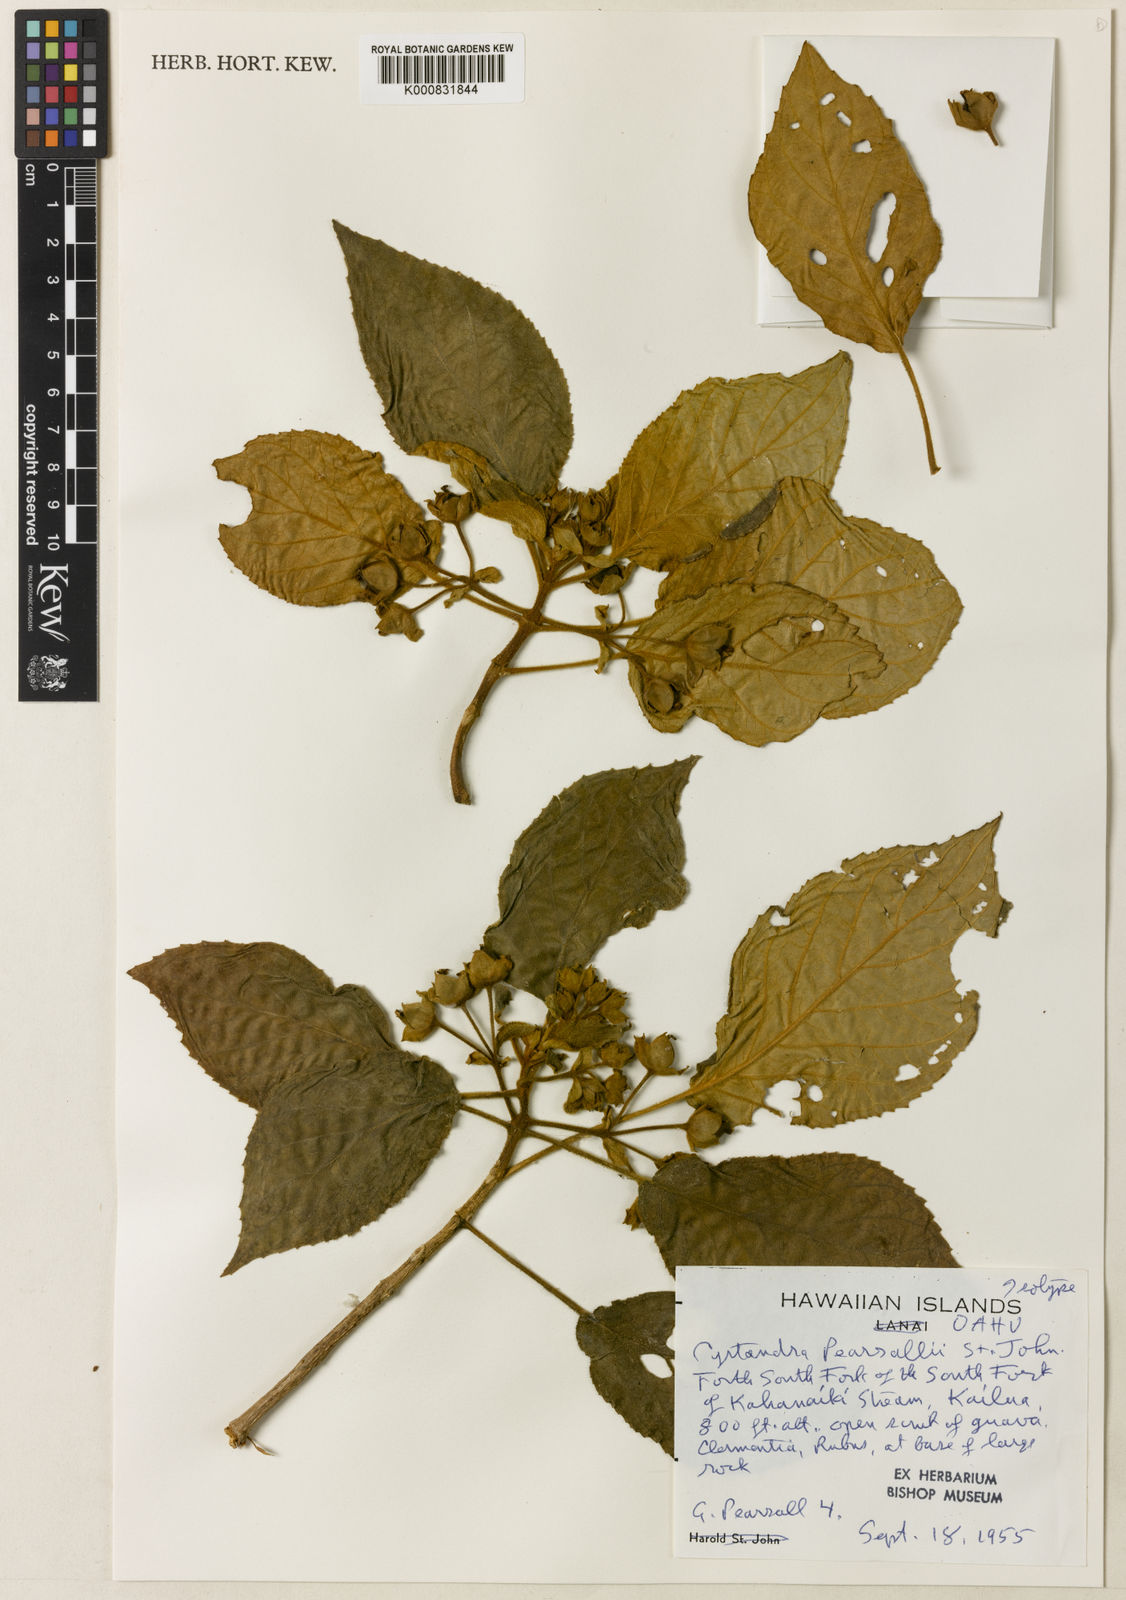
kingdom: Plantae
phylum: Tracheophyta
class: Magnoliopsida
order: Lamiales
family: Gesneriaceae
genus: Cyrtandra
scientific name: Cyrtandra kipapaensis
